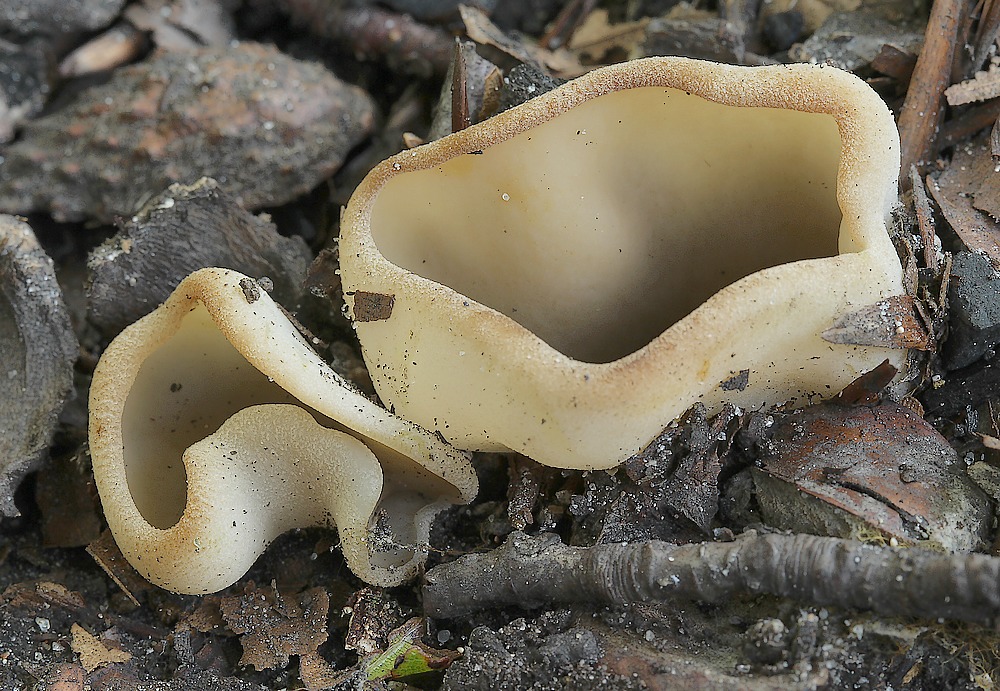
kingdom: Fungi
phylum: Ascomycota
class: Pezizomycetes
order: Pezizales
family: Pezizaceae
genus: Paragalactinia
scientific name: Paragalactinia succosa
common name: gulmælket bægersvamp
